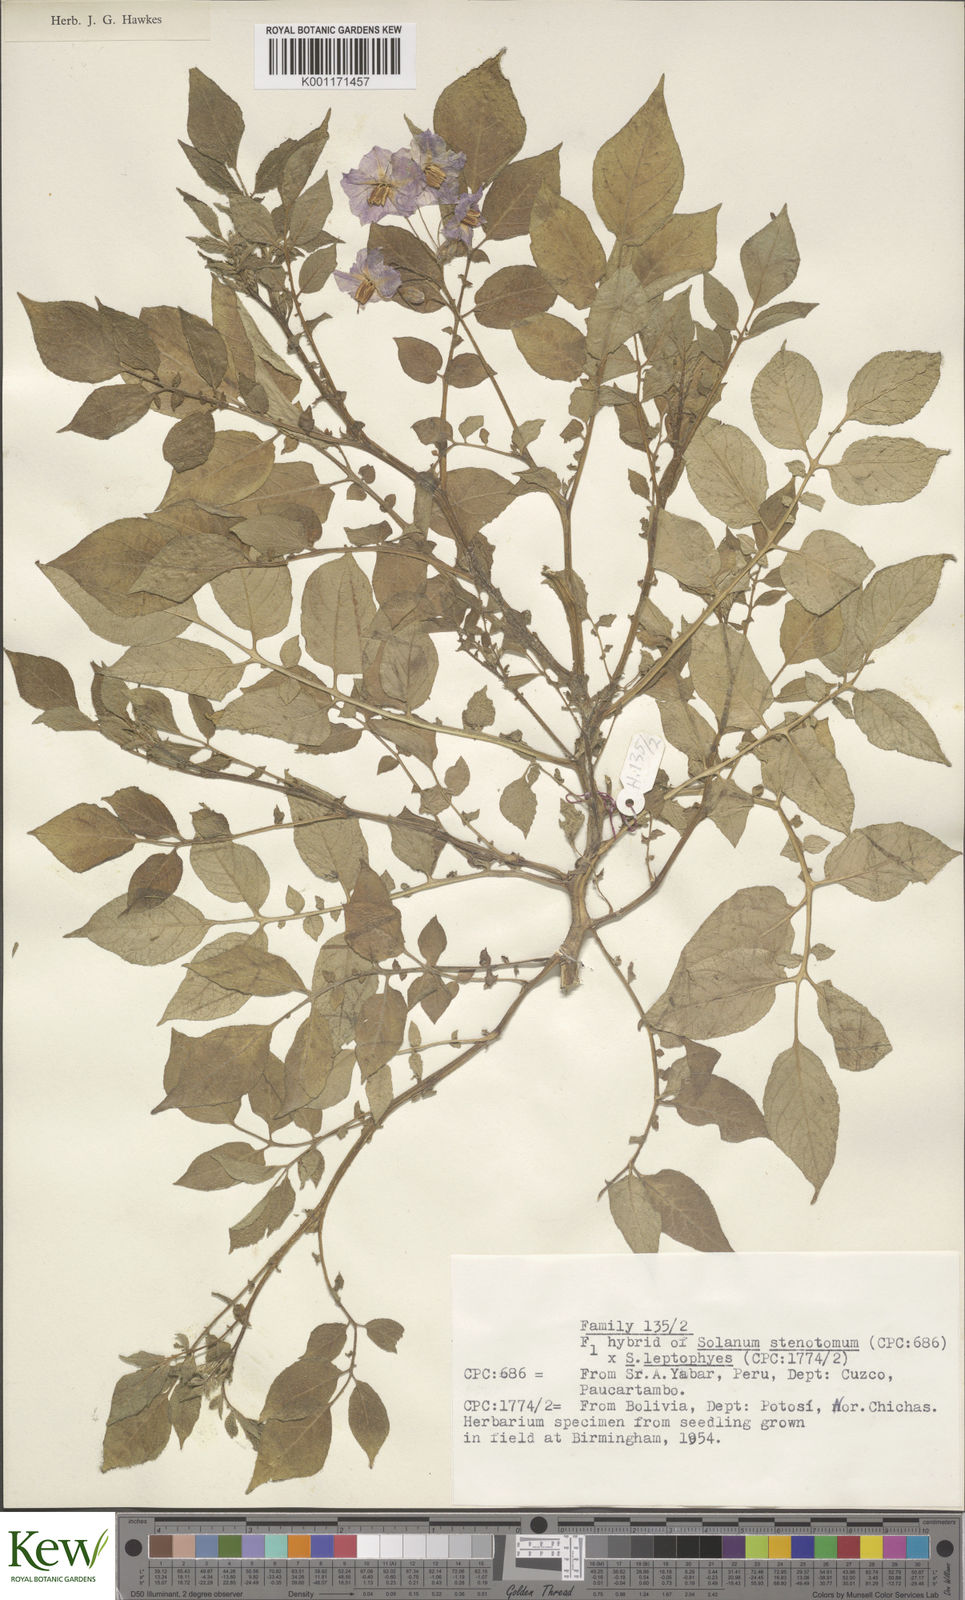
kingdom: Plantae
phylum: Tracheophyta
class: Magnoliopsida
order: Solanales
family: Solanaceae
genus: Solanum
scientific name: Solanum tuberosum
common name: Potato
